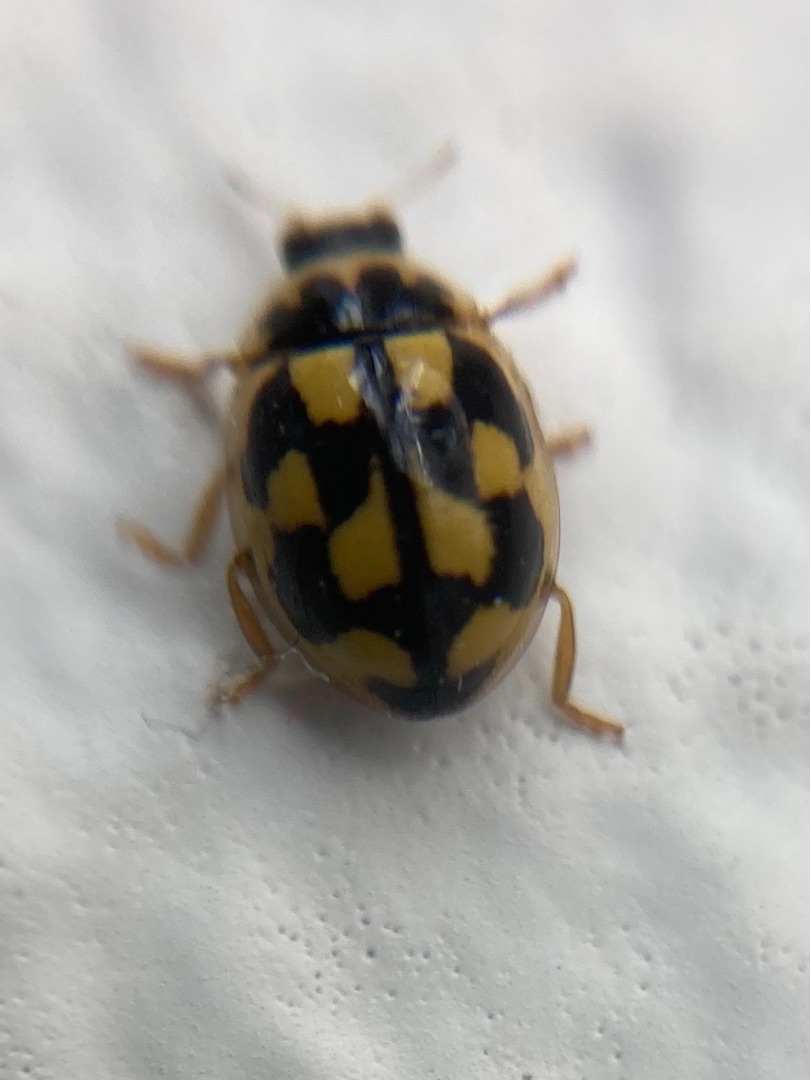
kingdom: Animalia
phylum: Arthropoda
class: Insecta
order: Coleoptera
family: Coccinellidae
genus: Propylaea
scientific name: Propylaea quatuordecimpunctata
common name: Skakbræt
